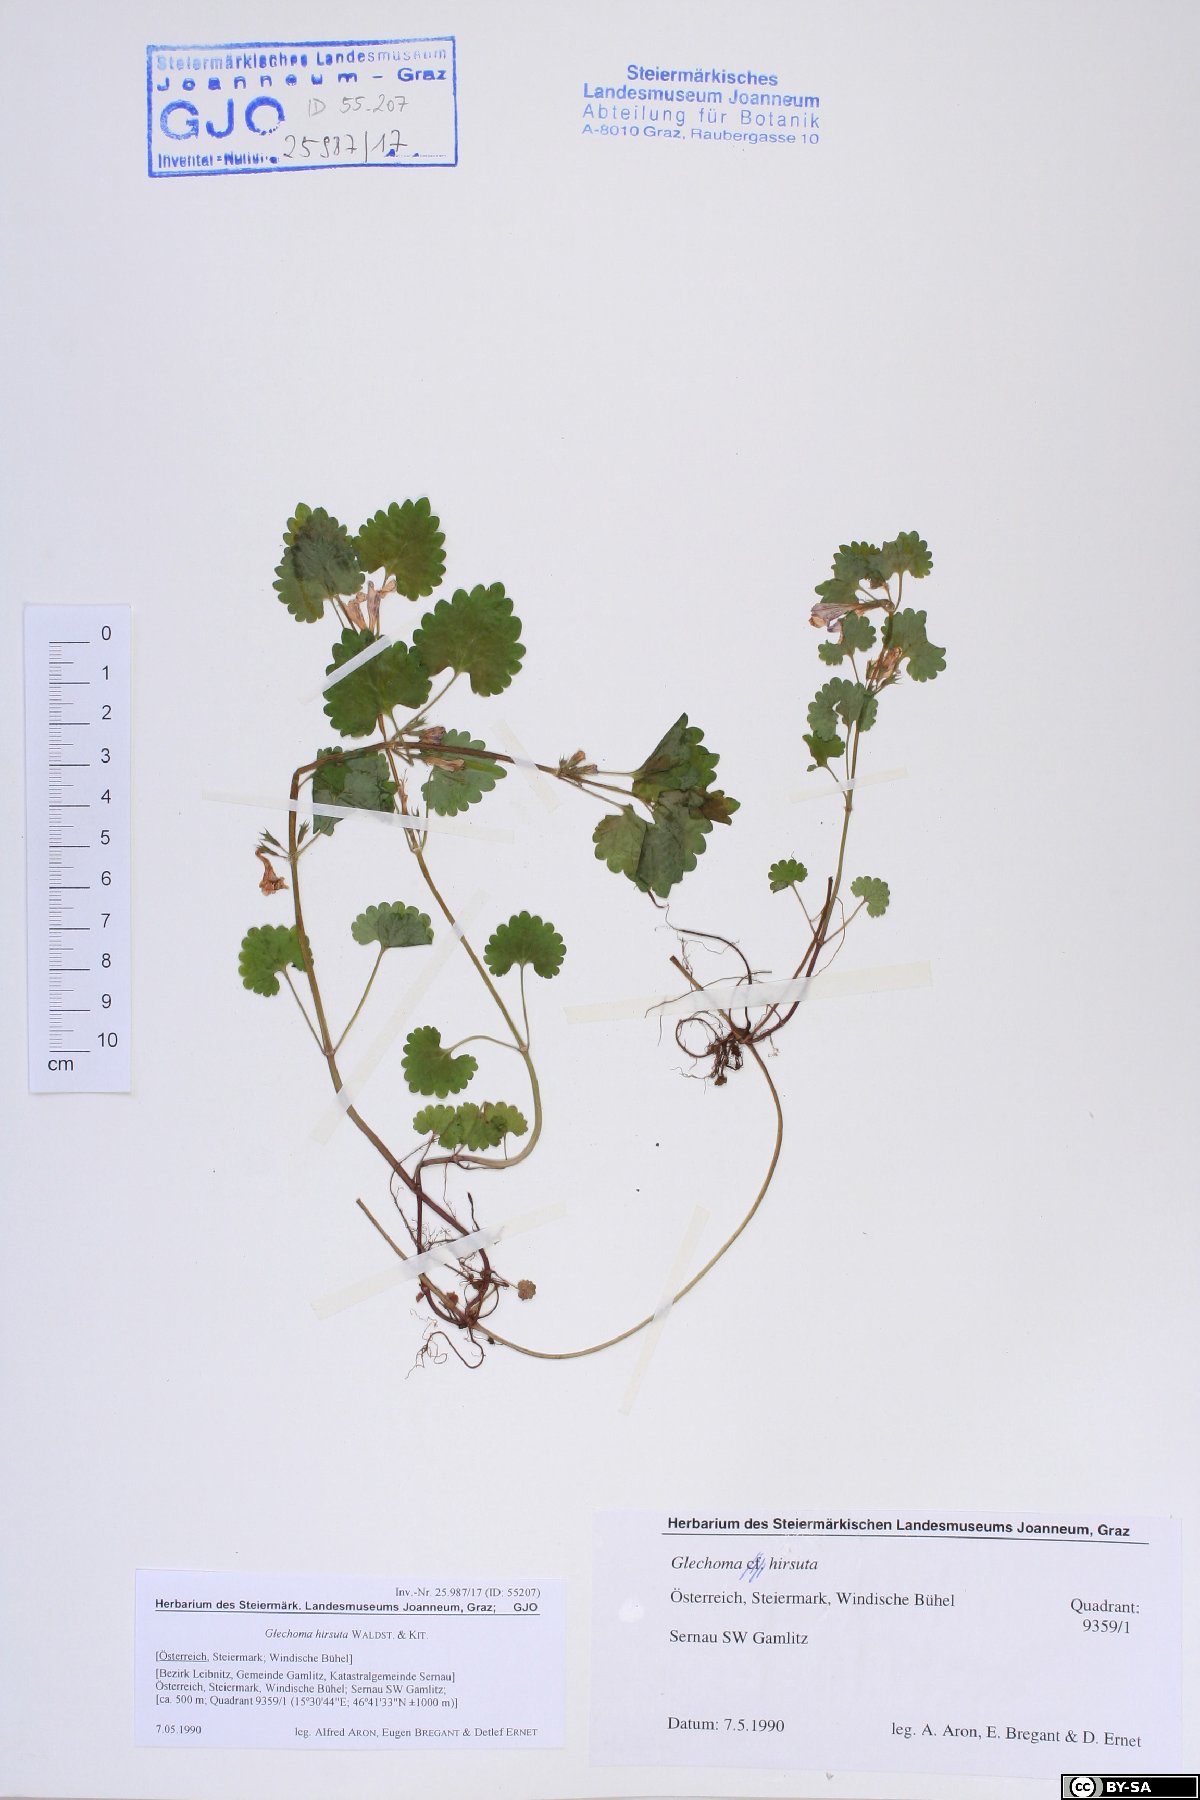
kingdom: Plantae
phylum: Tracheophyta
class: Magnoliopsida
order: Lamiales
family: Lamiaceae
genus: Glechoma
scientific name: Glechoma hirsuta
